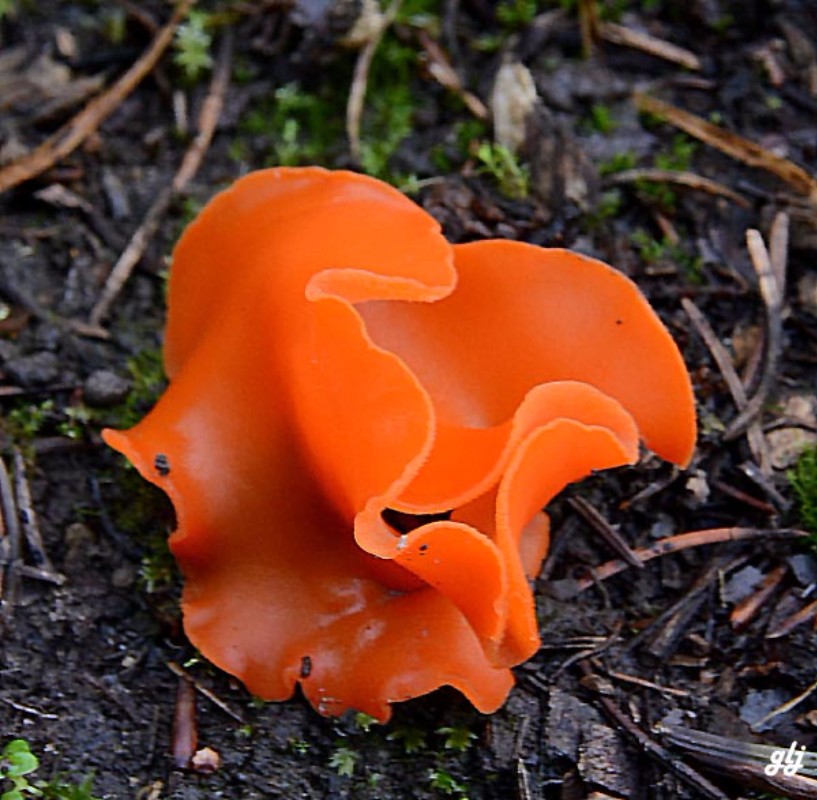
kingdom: Fungi
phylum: Ascomycota
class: Pezizomycetes
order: Pezizales
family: Pyronemataceae
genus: Aleuria
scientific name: Aleuria aurantia
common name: almindelig orangebæger
